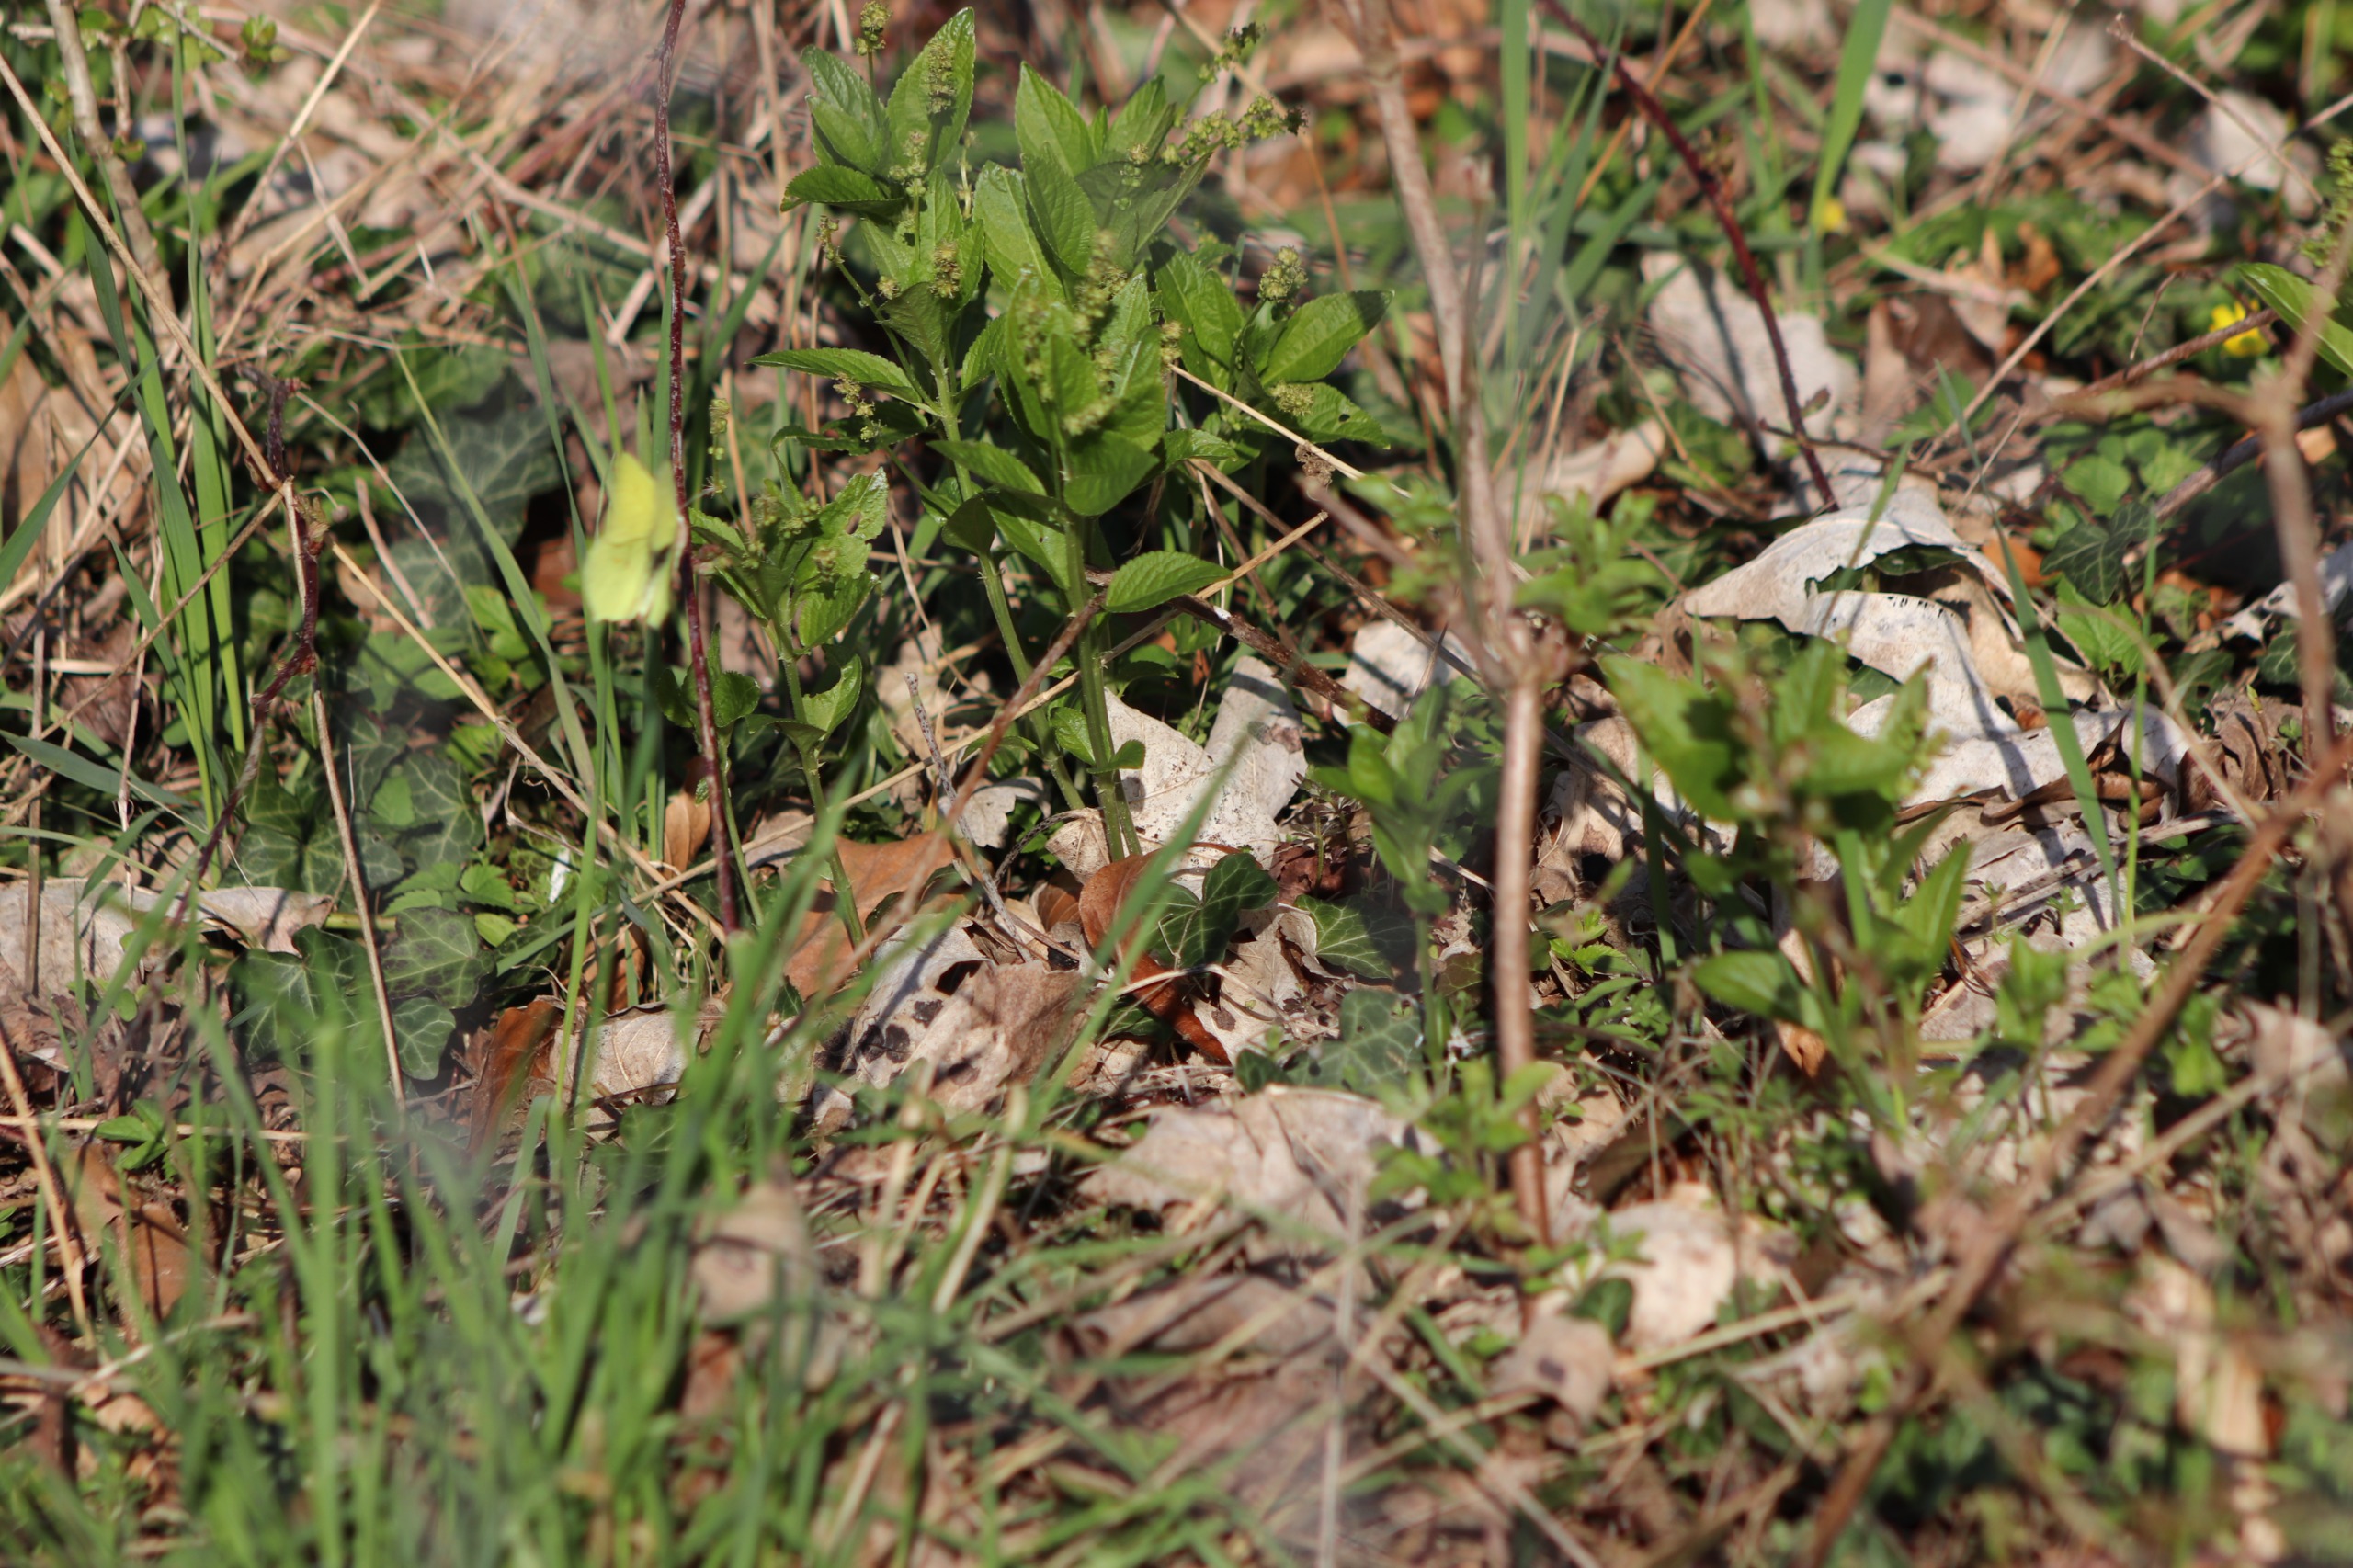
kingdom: Plantae
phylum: Tracheophyta
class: Magnoliopsida
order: Malpighiales
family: Euphorbiaceae
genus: Mercurialis
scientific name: Mercurialis perennis
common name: Almindelig bingelurt
